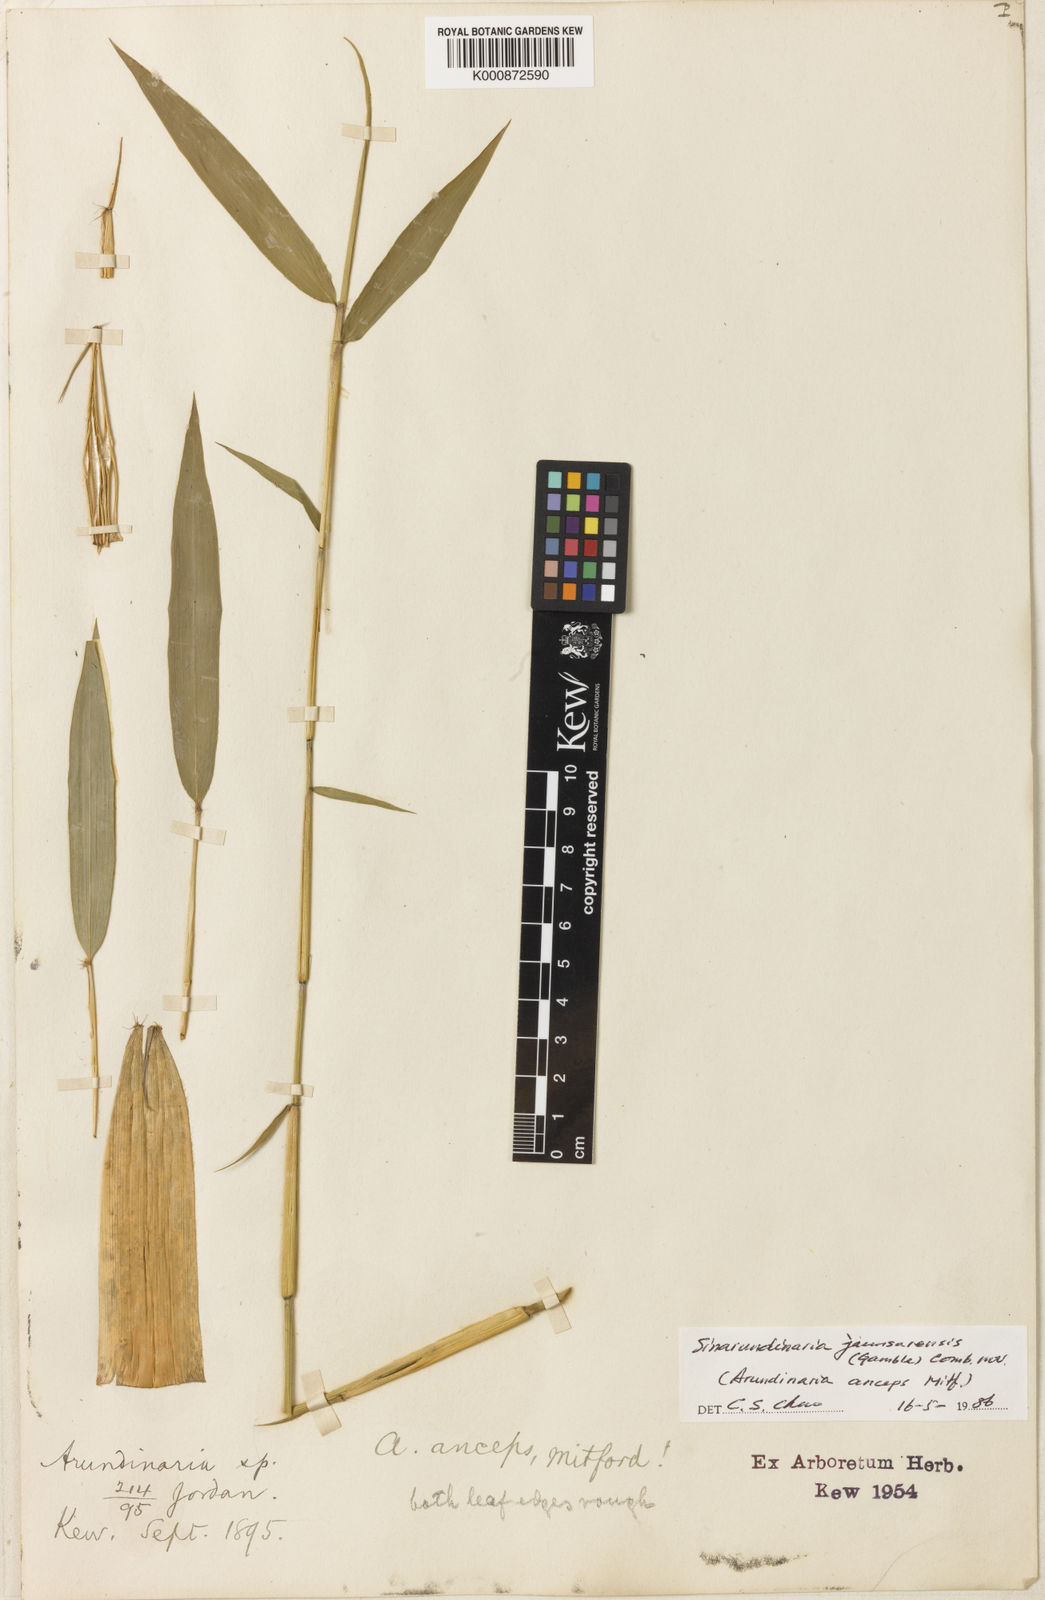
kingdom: Plantae
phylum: Tracheophyta
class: Liliopsida
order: Poales
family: Poaceae
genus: Yushania
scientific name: Yushania anceps
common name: Indian fountain-bamboo
